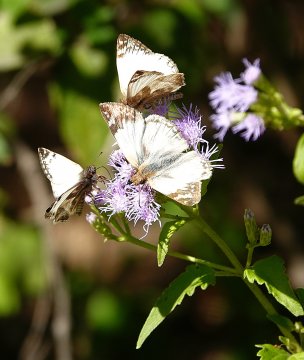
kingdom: Animalia
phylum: Arthropoda
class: Insecta
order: Lepidoptera
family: Hesperiidae
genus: Heliopetes
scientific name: Heliopetes laviana
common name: Laviana White-Skipper
